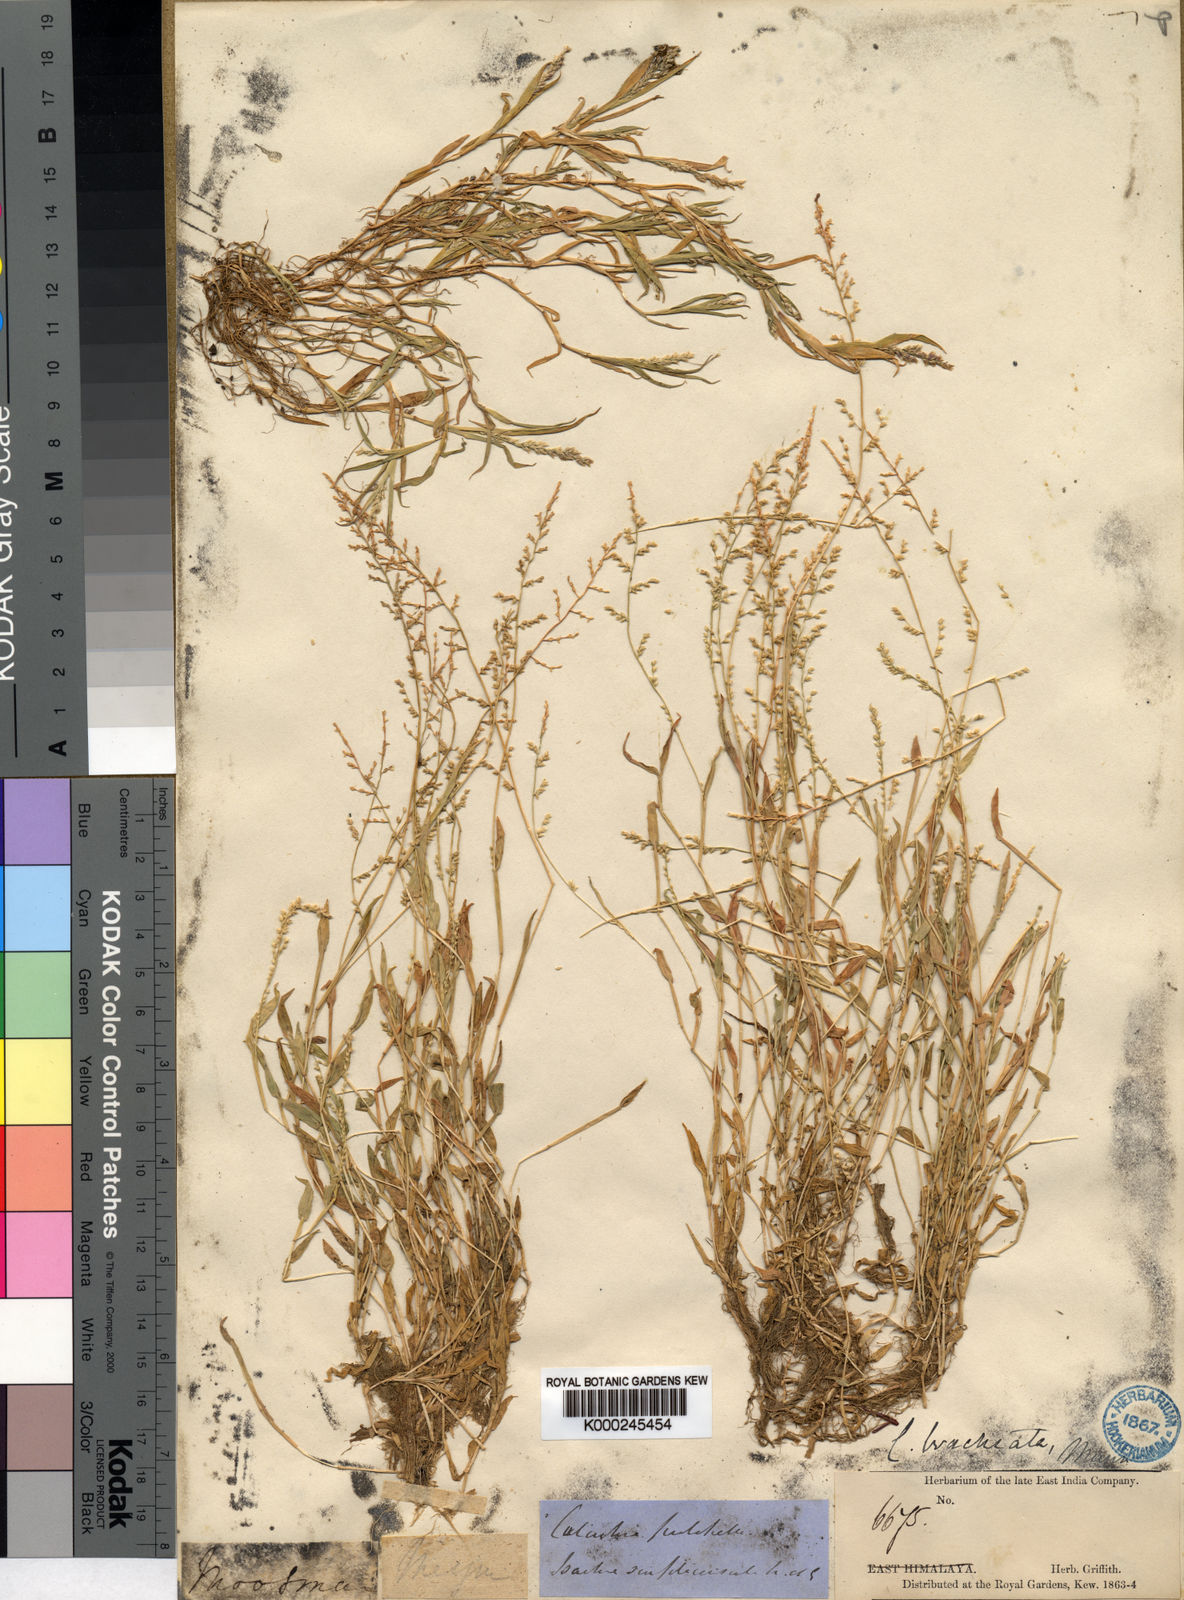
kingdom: Plantae
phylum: Tracheophyta
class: Liliopsida
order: Poales
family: Poaceae
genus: Coelachne
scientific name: Coelachne simpliciuscula
